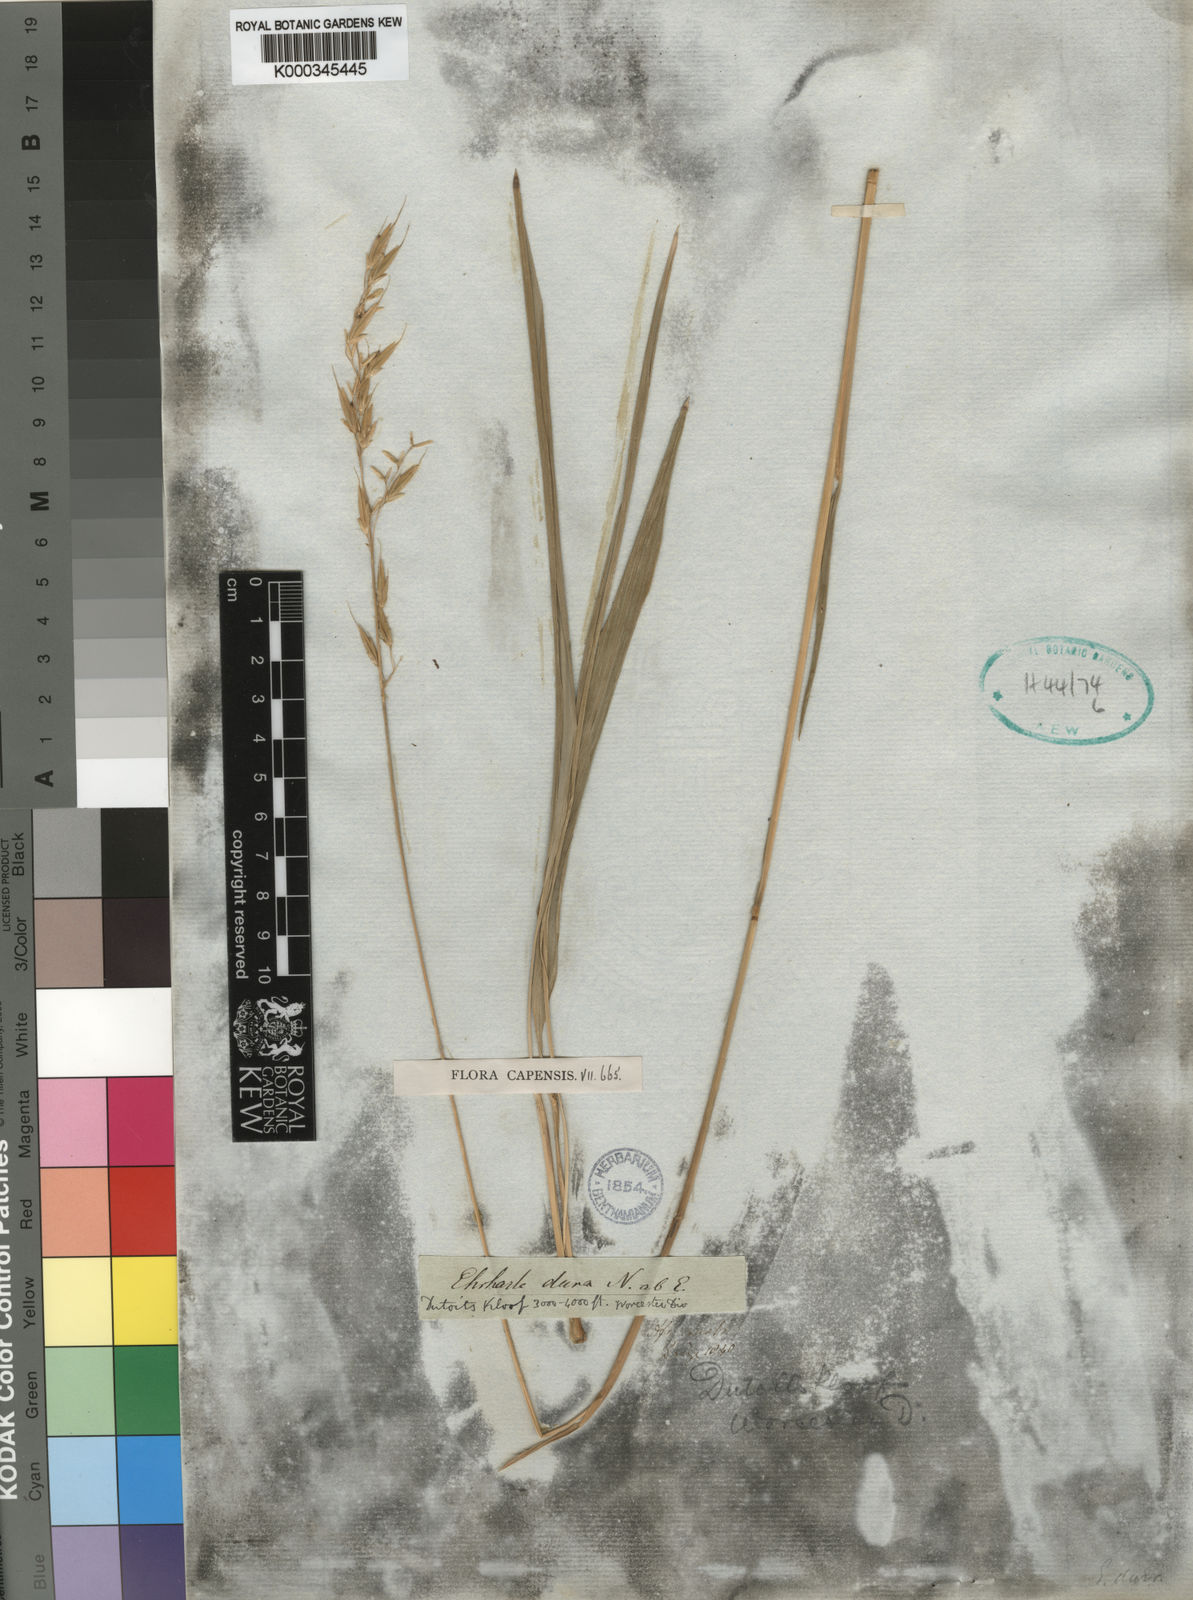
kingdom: Plantae
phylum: Tracheophyta
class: Liliopsida
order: Poales
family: Poaceae
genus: Ehrharta
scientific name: Ehrharta dura
